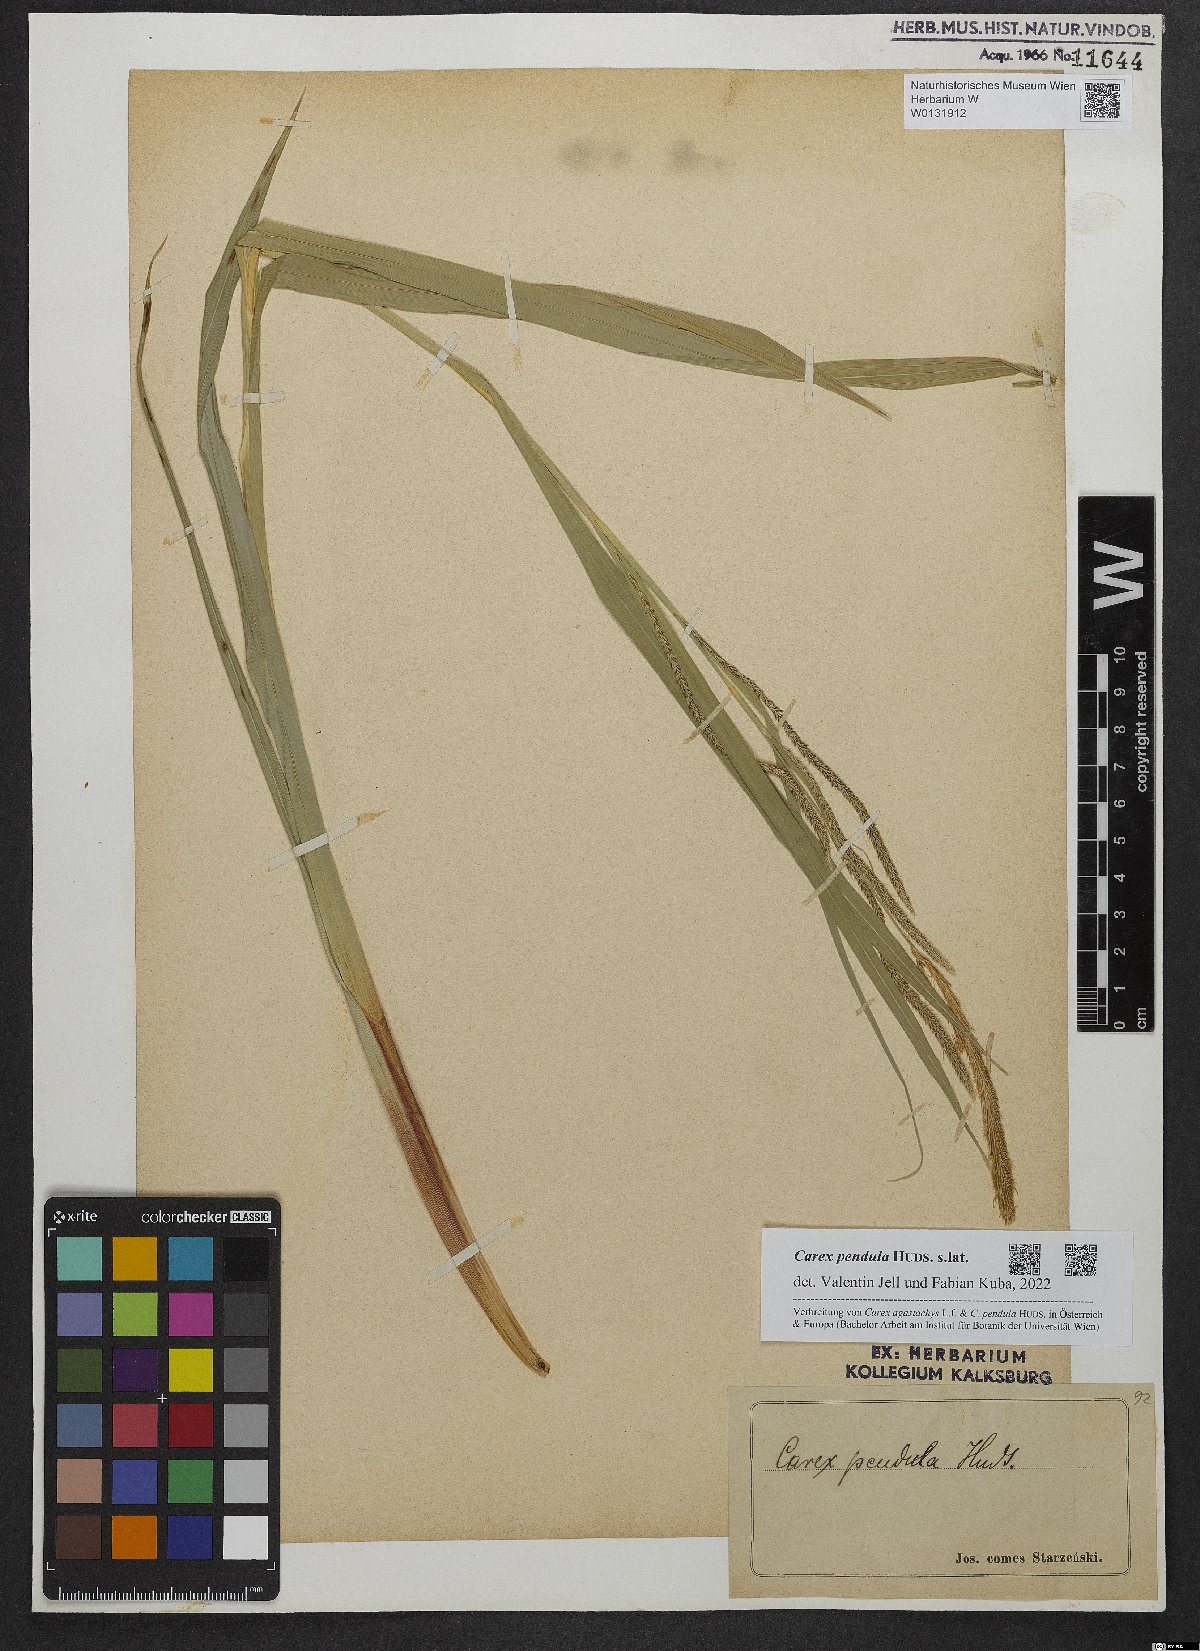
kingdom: Plantae
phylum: Tracheophyta
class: Liliopsida
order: Poales
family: Cyperaceae
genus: Carex
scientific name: Carex pendula
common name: Pendulous sedge
